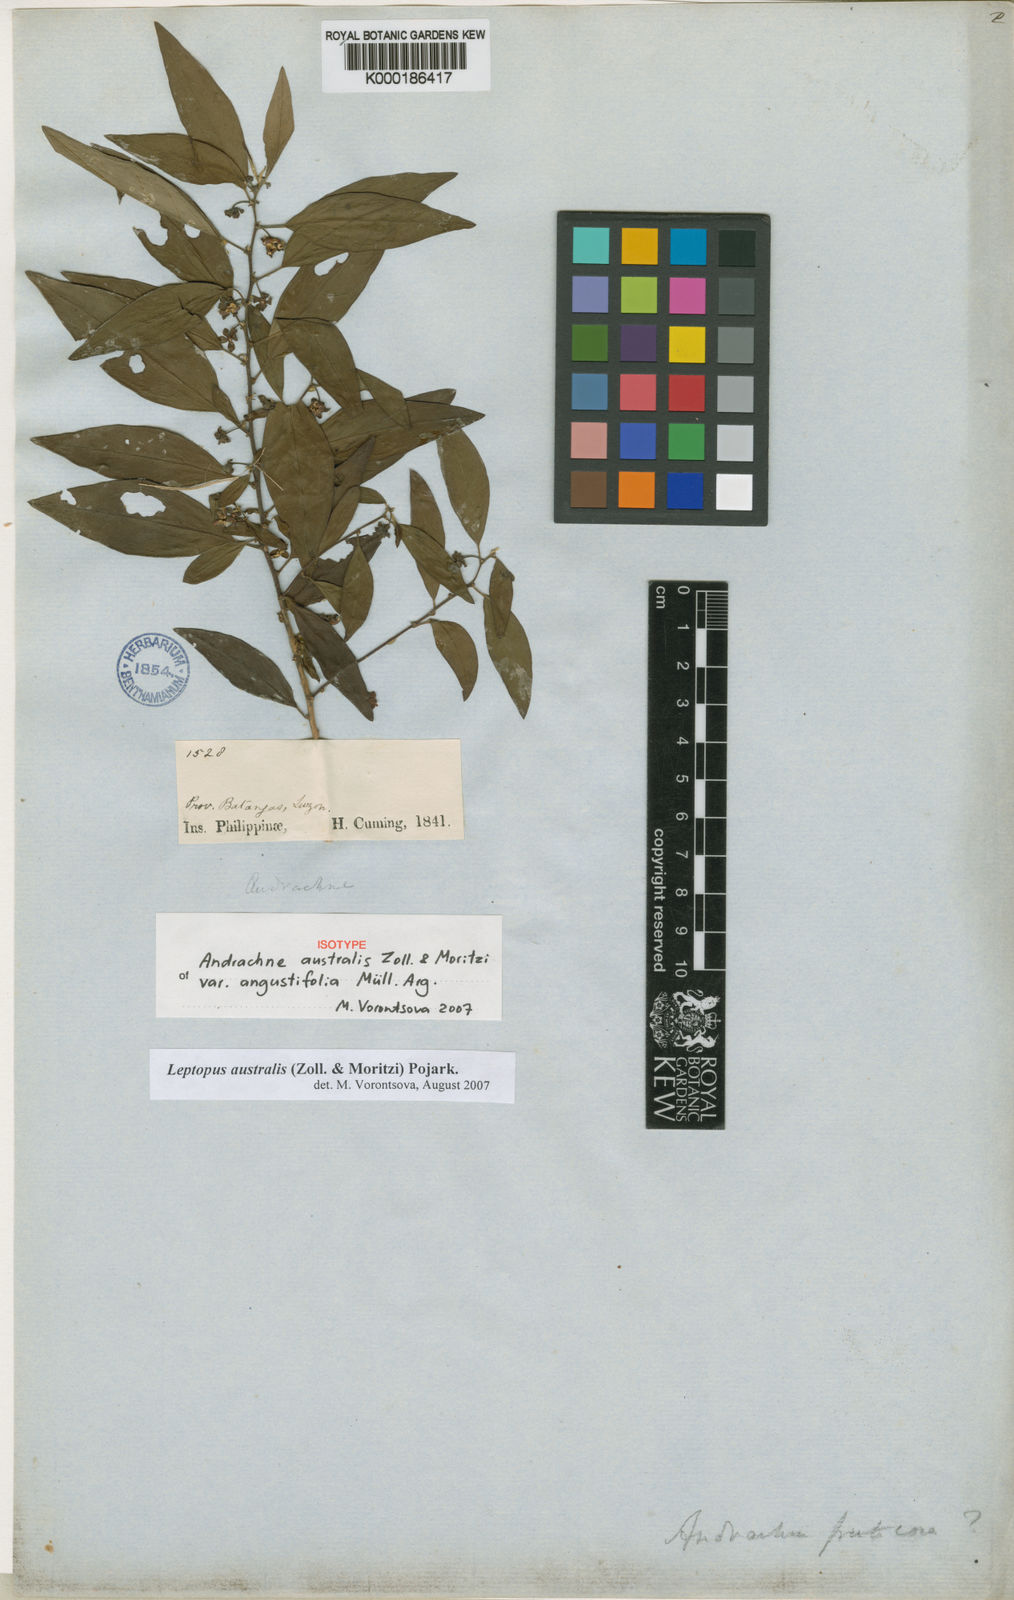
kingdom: Plantae
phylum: Tracheophyta
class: Magnoliopsida
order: Malpighiales
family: Phyllanthaceae
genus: Leptopus
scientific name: Leptopus australis
